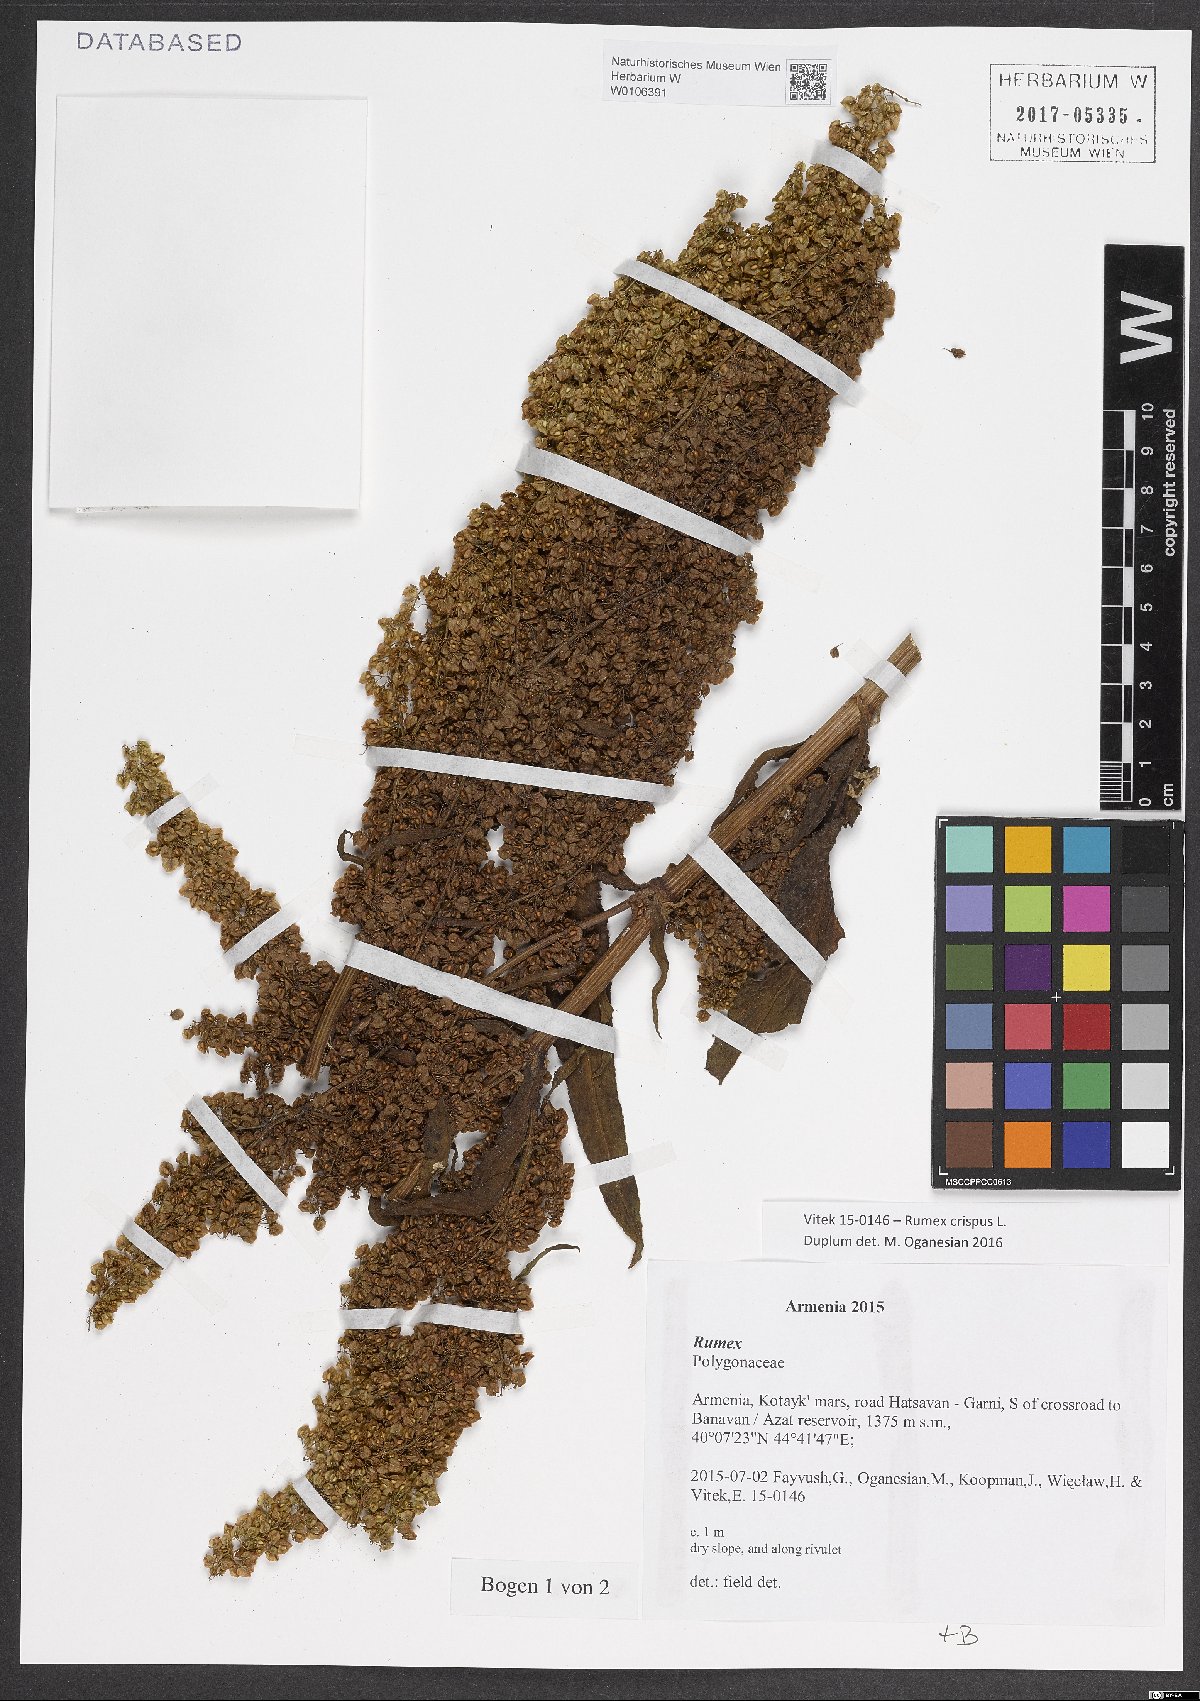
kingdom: Plantae
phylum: Tracheophyta
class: Magnoliopsida
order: Caryophyllales
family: Polygonaceae
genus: Rumex
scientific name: Rumex crispus
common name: Curled dock
